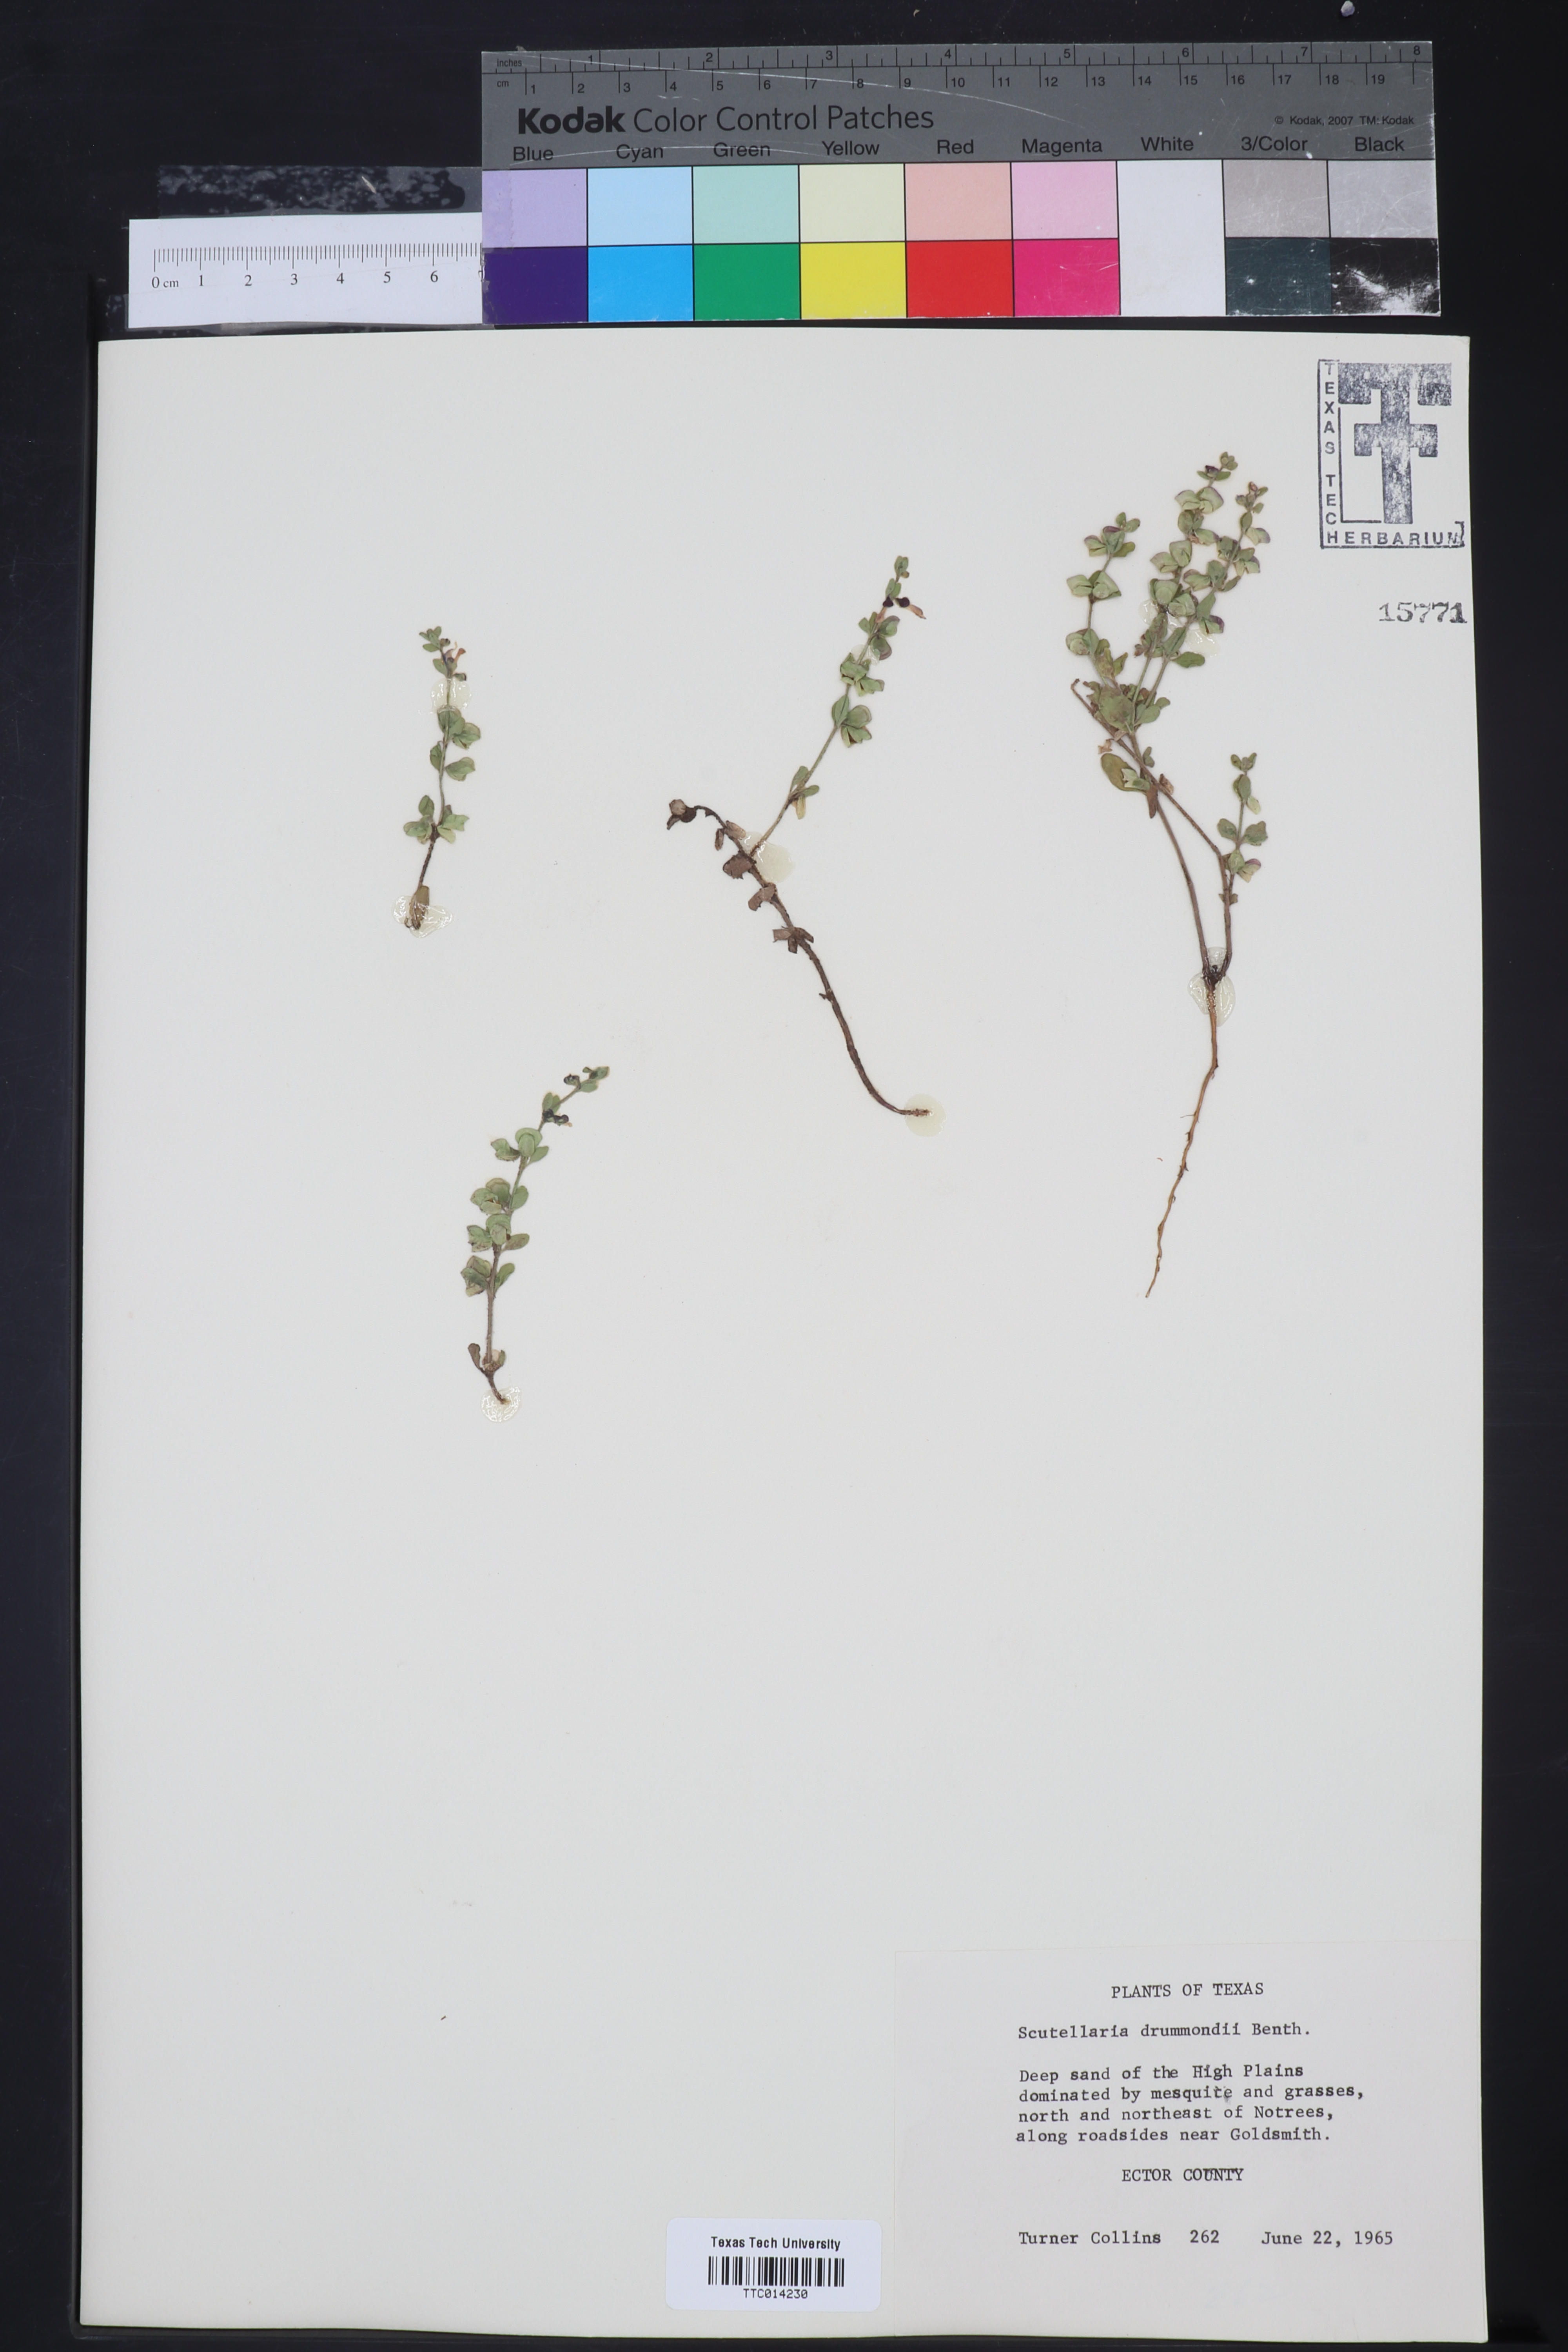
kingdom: Plantae
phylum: Tracheophyta
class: Magnoliopsida
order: Lamiales
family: Lamiaceae
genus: Scutellaria
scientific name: Scutellaria drummondii
